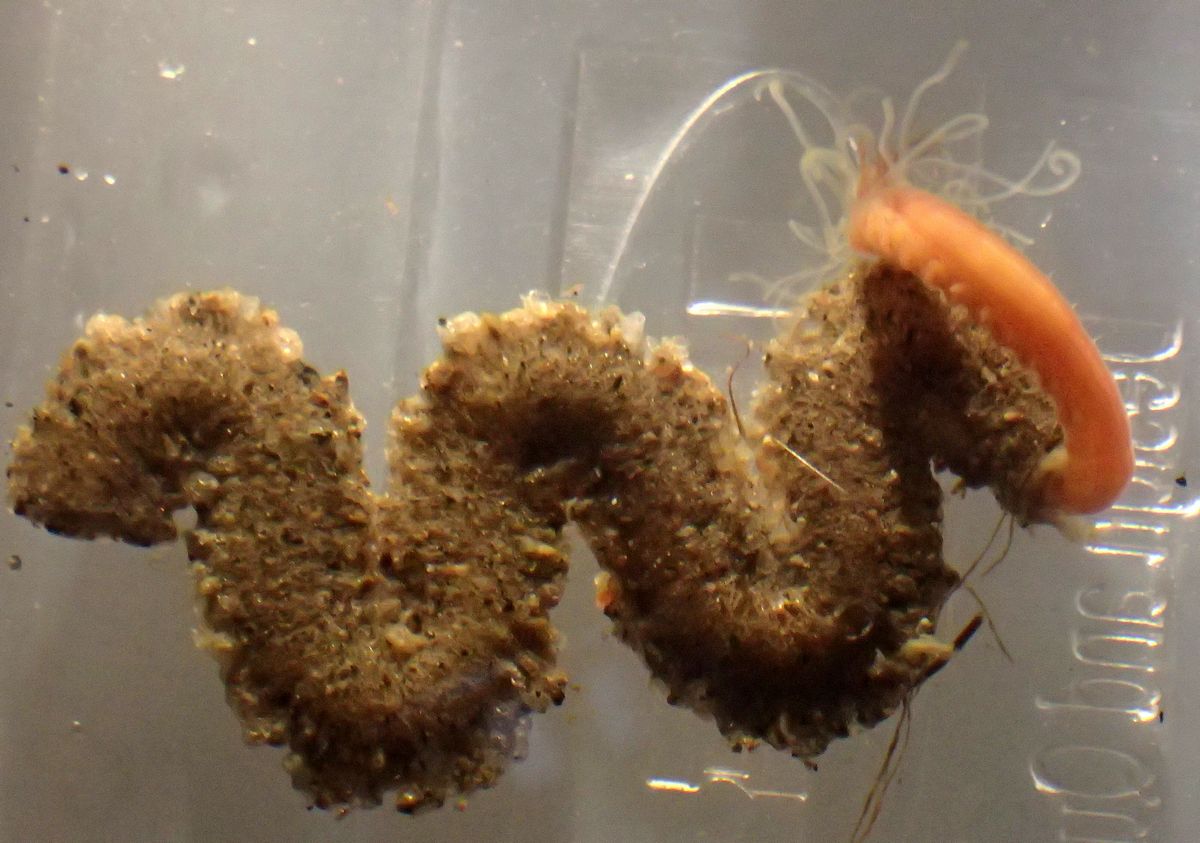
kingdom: Animalia
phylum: Annelida
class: Polychaeta
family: Terebellidae
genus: Axionice
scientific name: Axionice flexuosa
